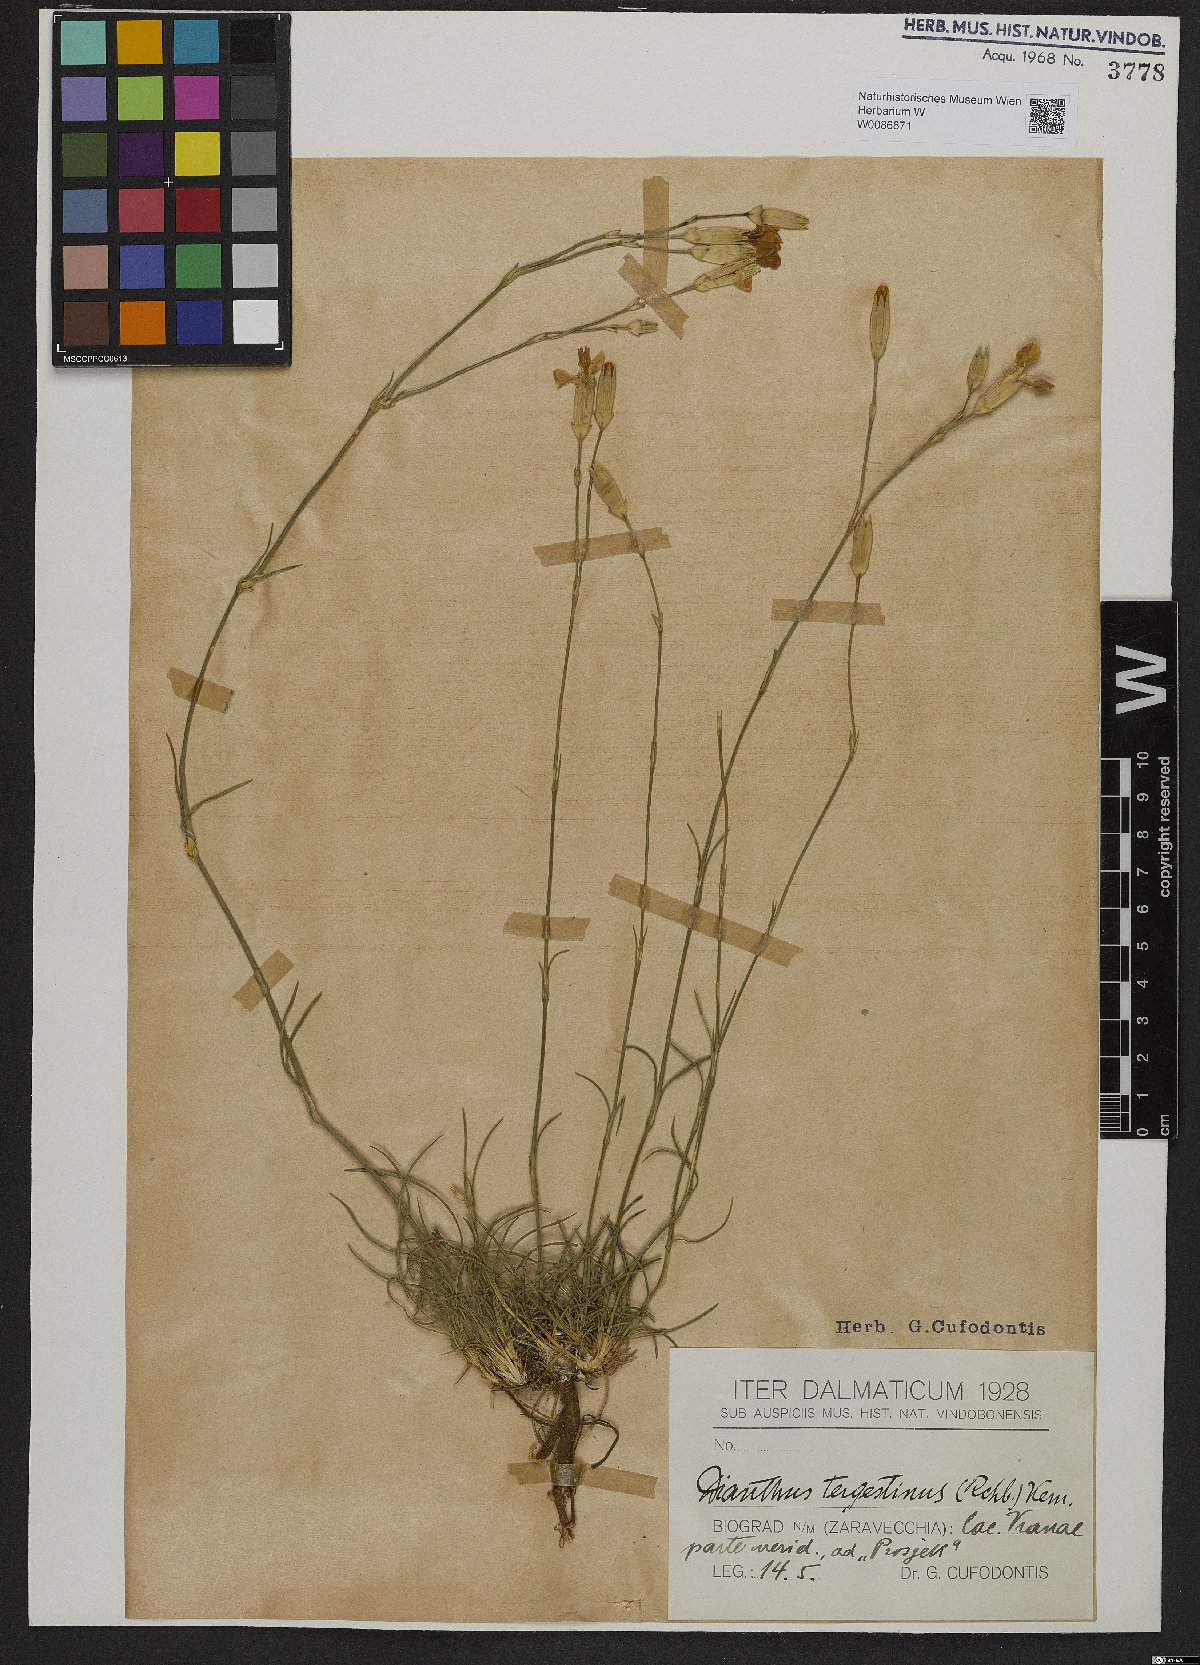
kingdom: Plantae
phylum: Tracheophyta
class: Magnoliopsida
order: Caryophyllales
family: Caryophyllaceae
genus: Dianthus
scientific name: Dianthus sylvestris
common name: Wood pink
